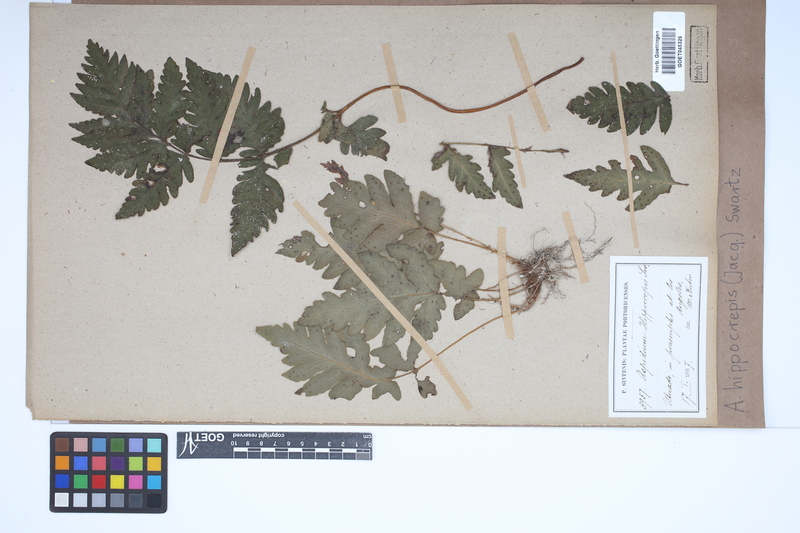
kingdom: Plantae
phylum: Tracheophyta
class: Polypodiopsida
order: Polypodiales
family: Tectariaceae
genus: Tectaria
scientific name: Tectaria cicutaria
